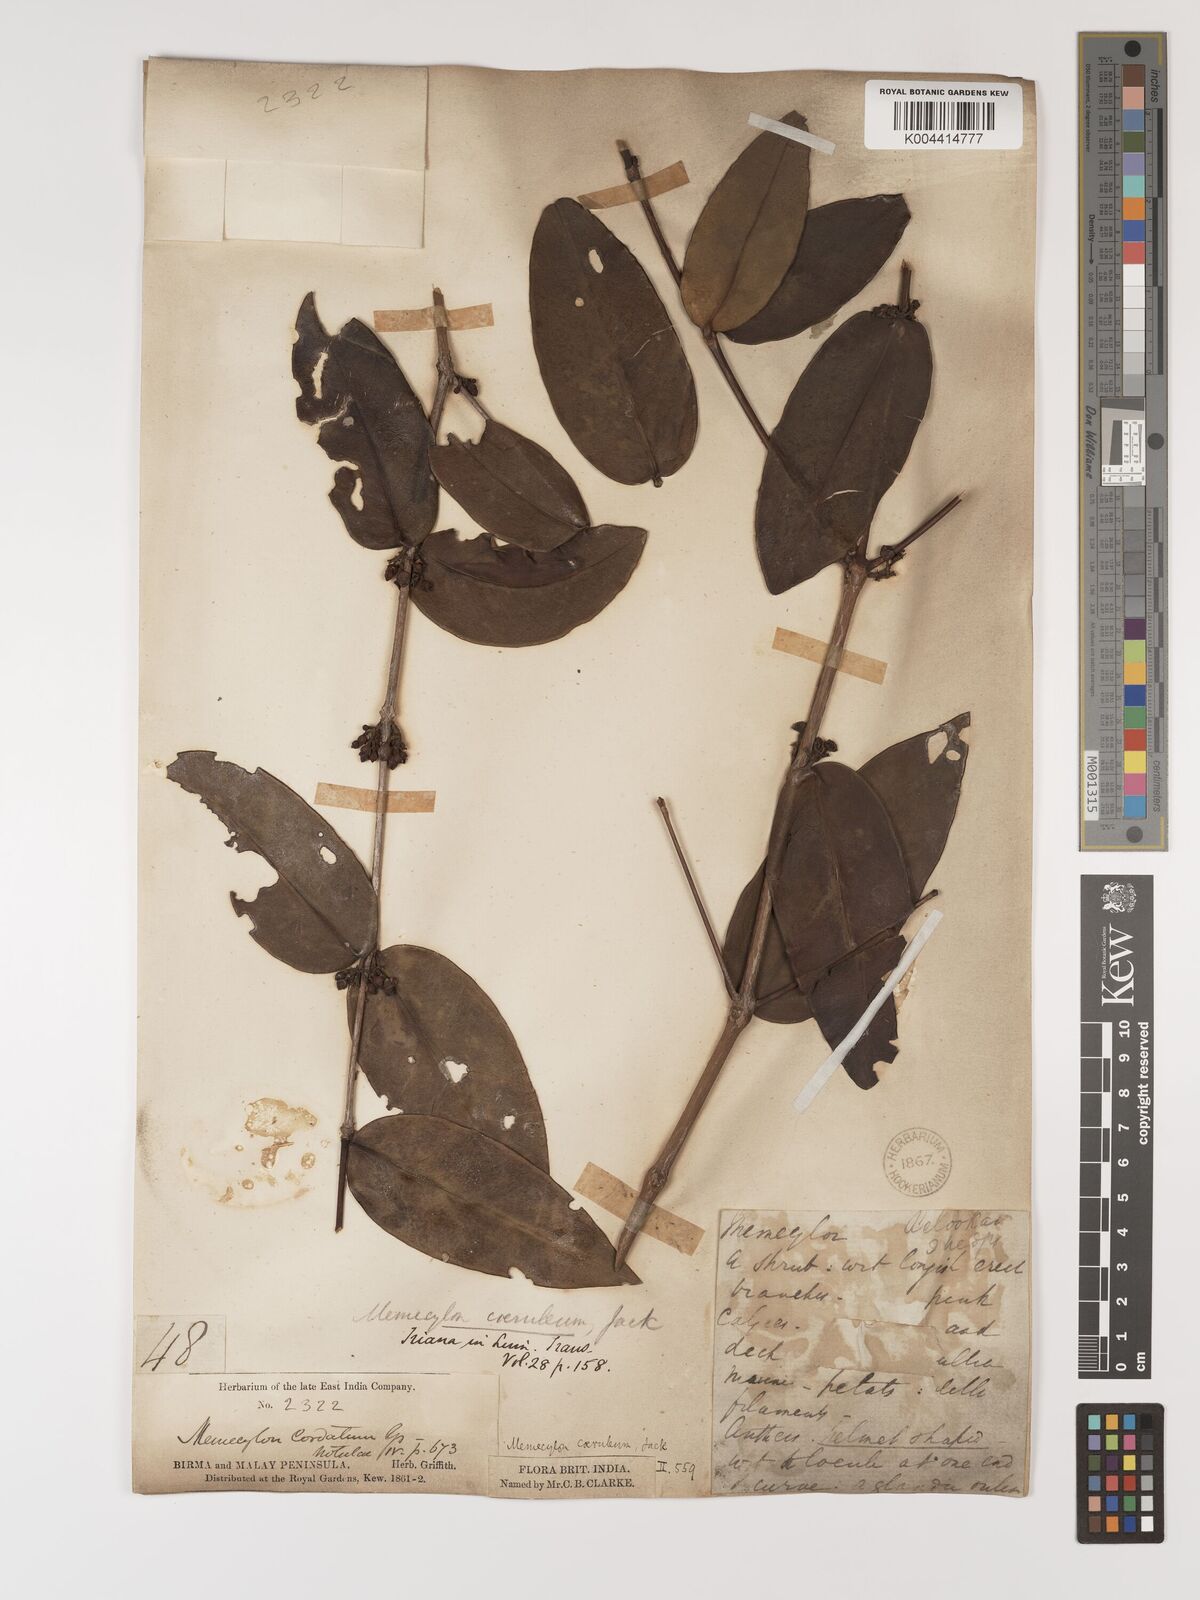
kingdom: Plantae
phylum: Tracheophyta
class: Magnoliopsida
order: Myrtales
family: Melastomataceae
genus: Memecylon
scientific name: Memecylon
